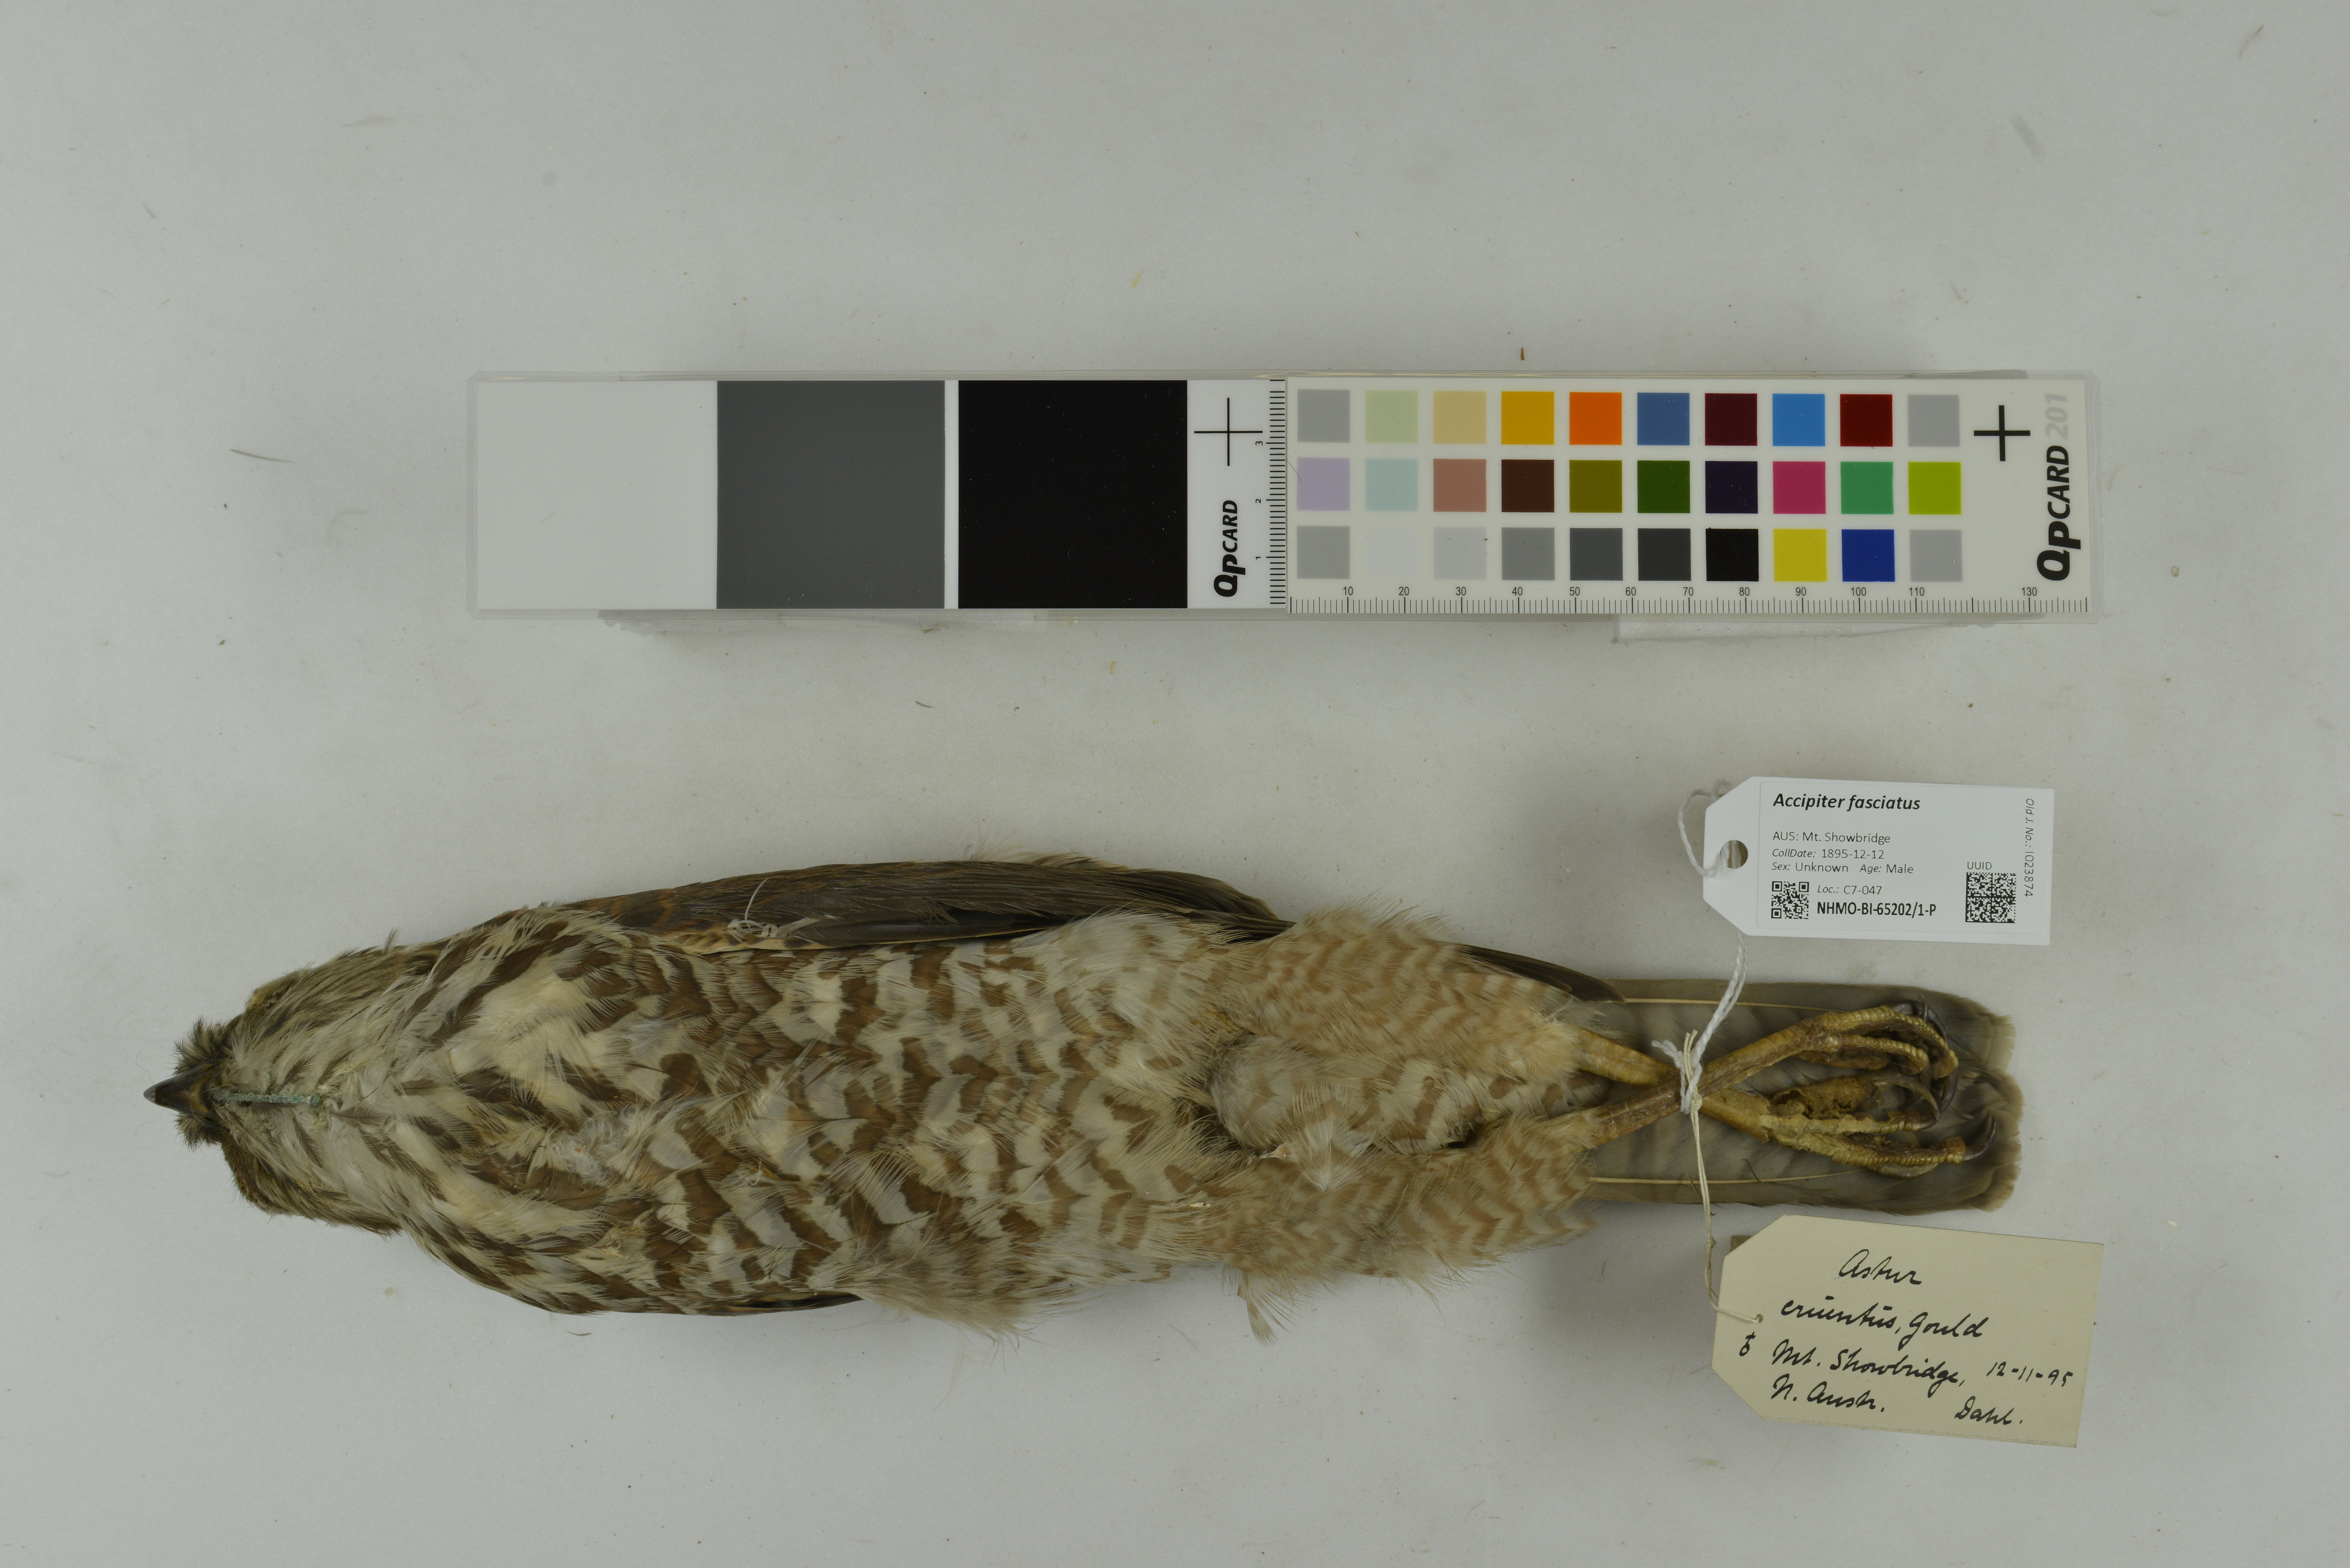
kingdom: Animalia
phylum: Chordata
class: Aves
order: Accipitriformes
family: Accipitridae
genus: Accipiter
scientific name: Accipiter fasciatus
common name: Brown goshawk
